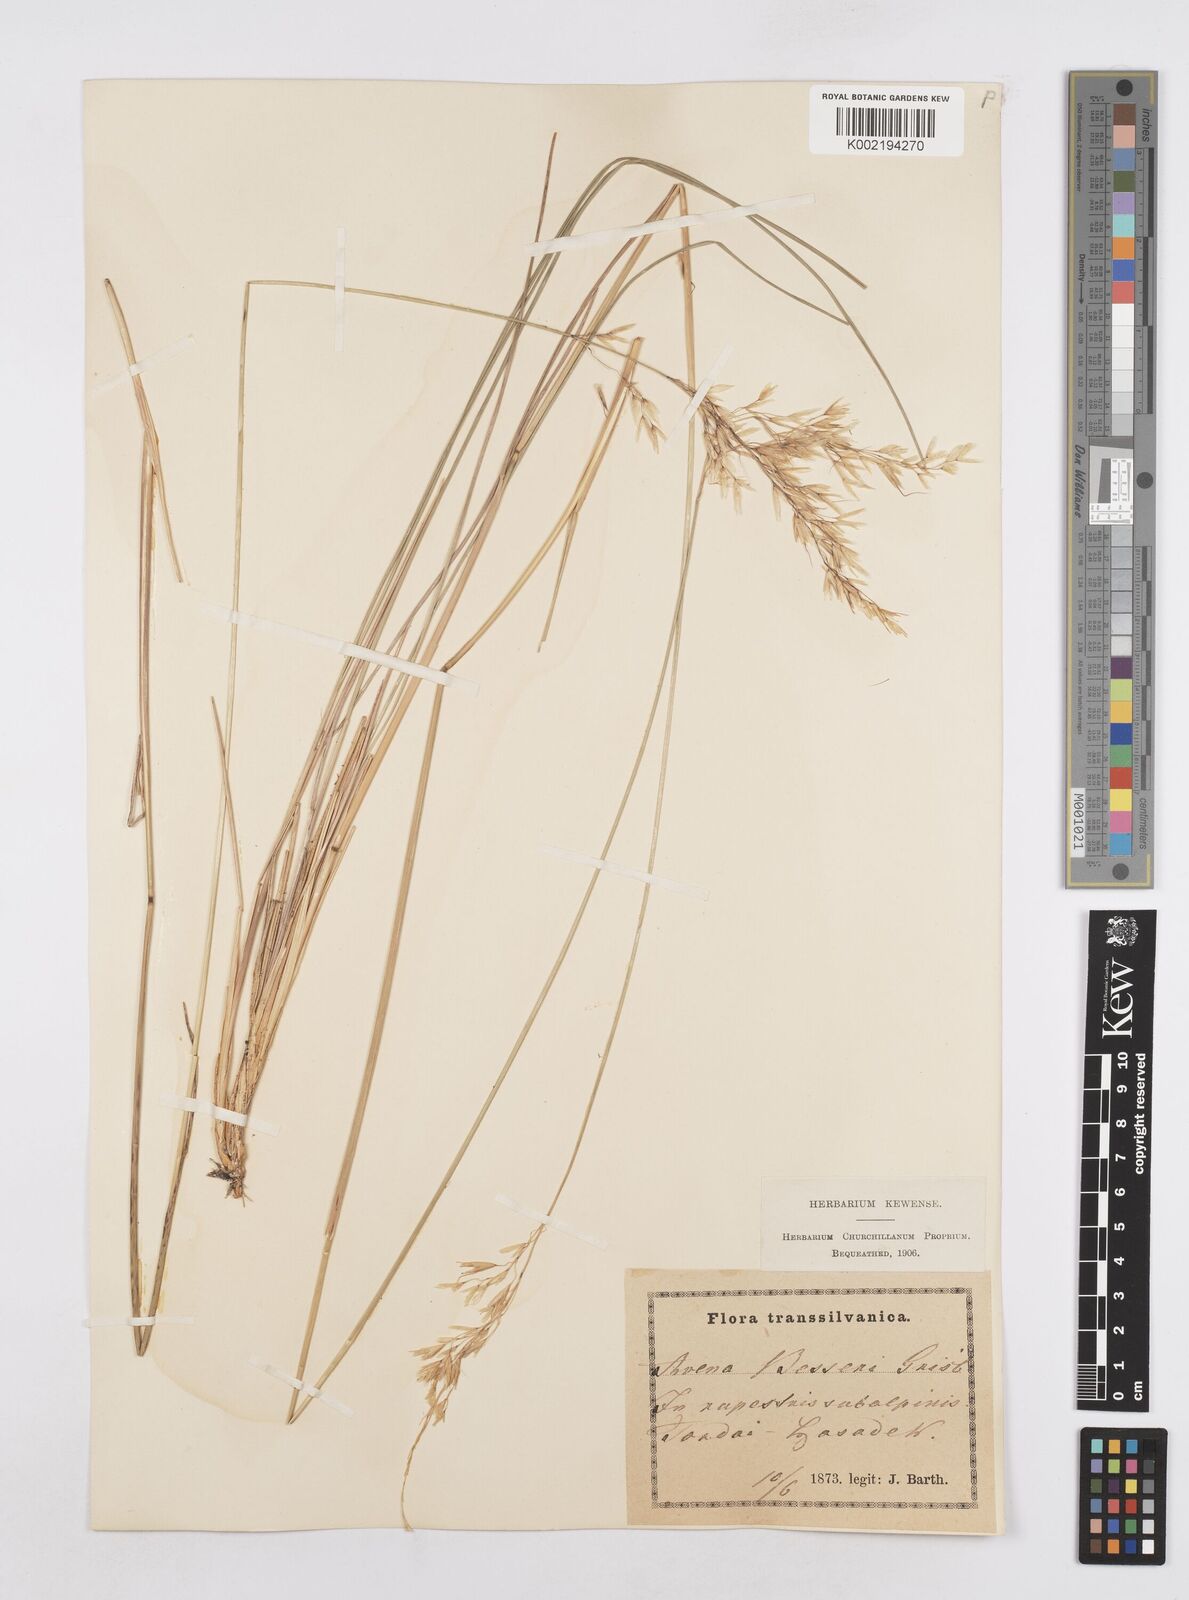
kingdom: Plantae
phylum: Tracheophyta
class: Liliopsida
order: Poales
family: Poaceae
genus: Helictotrichon
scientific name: Helictotrichon decorum
